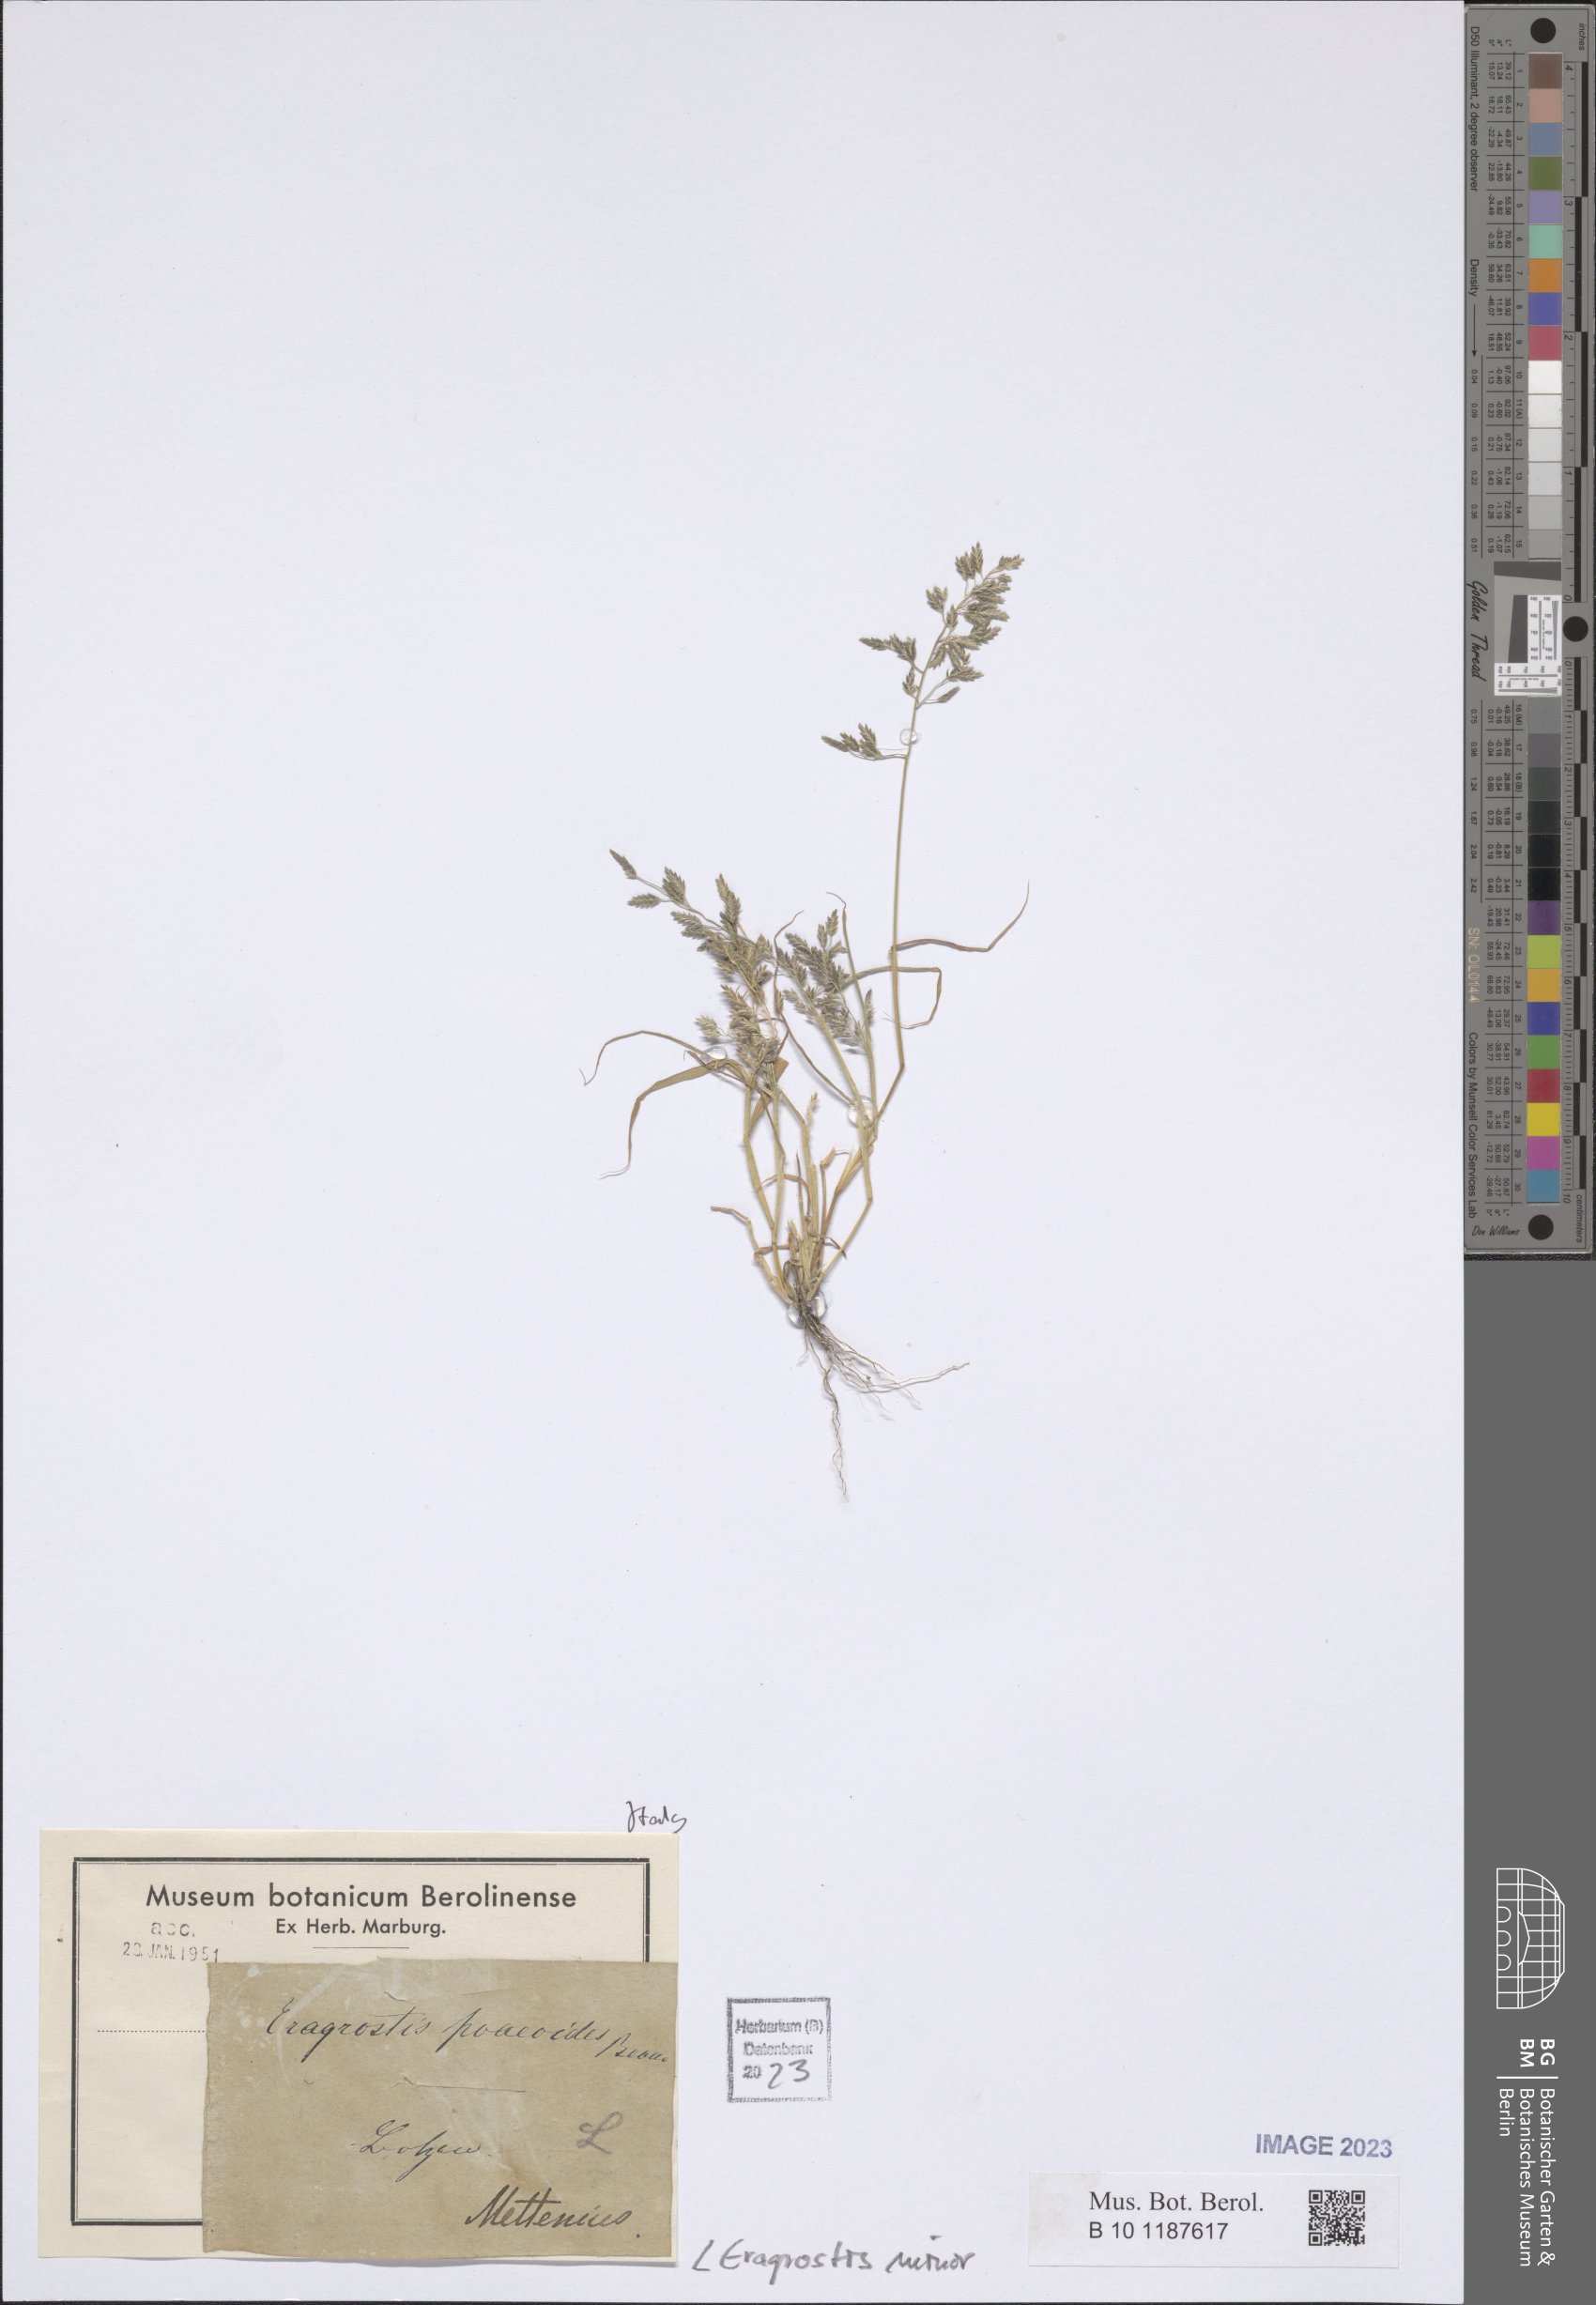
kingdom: Plantae
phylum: Tracheophyta
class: Liliopsida
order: Poales
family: Poaceae
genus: Eragrostis
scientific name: Eragrostis minor
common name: Small love-grass
